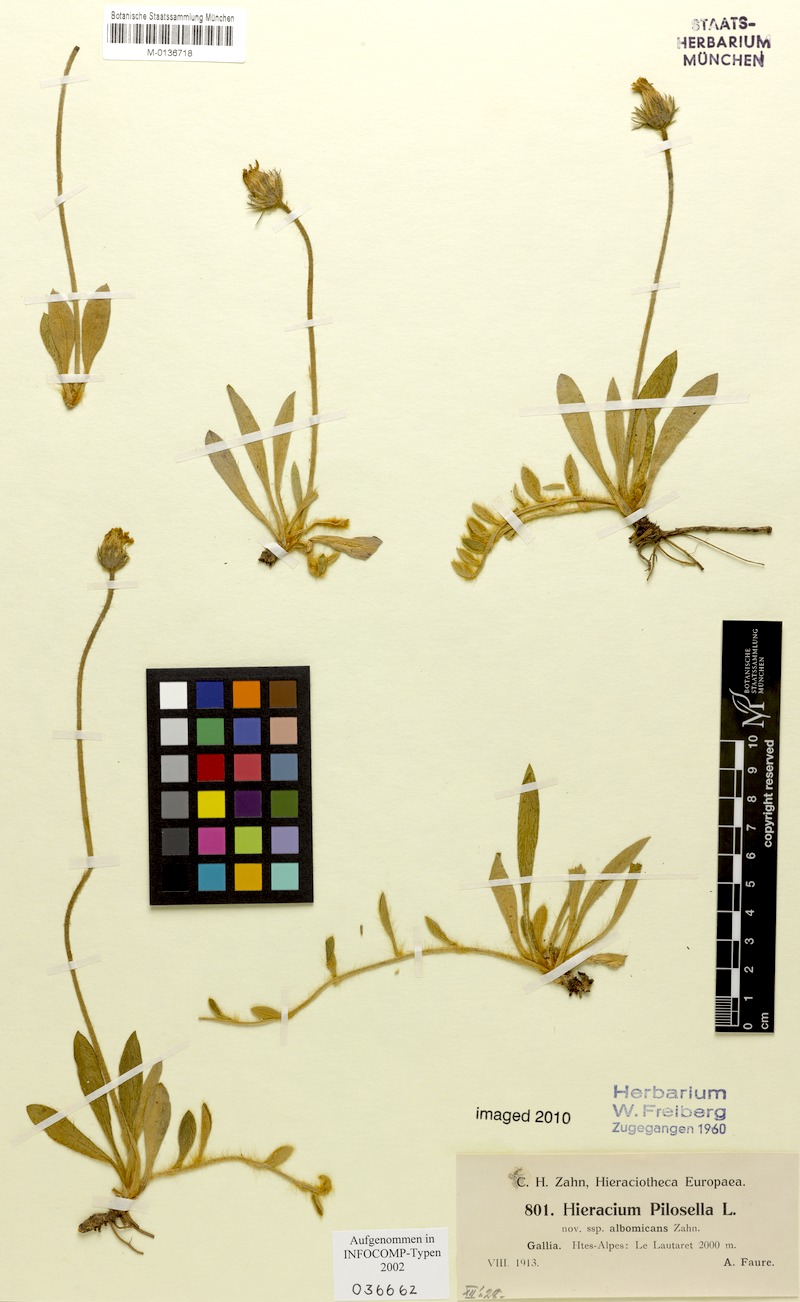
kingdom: Plantae
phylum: Tracheophyta
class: Magnoliopsida
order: Asterales
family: Asteraceae
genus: Pilosella
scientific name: Pilosella officinarum
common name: Mouse-ear hawkweed
